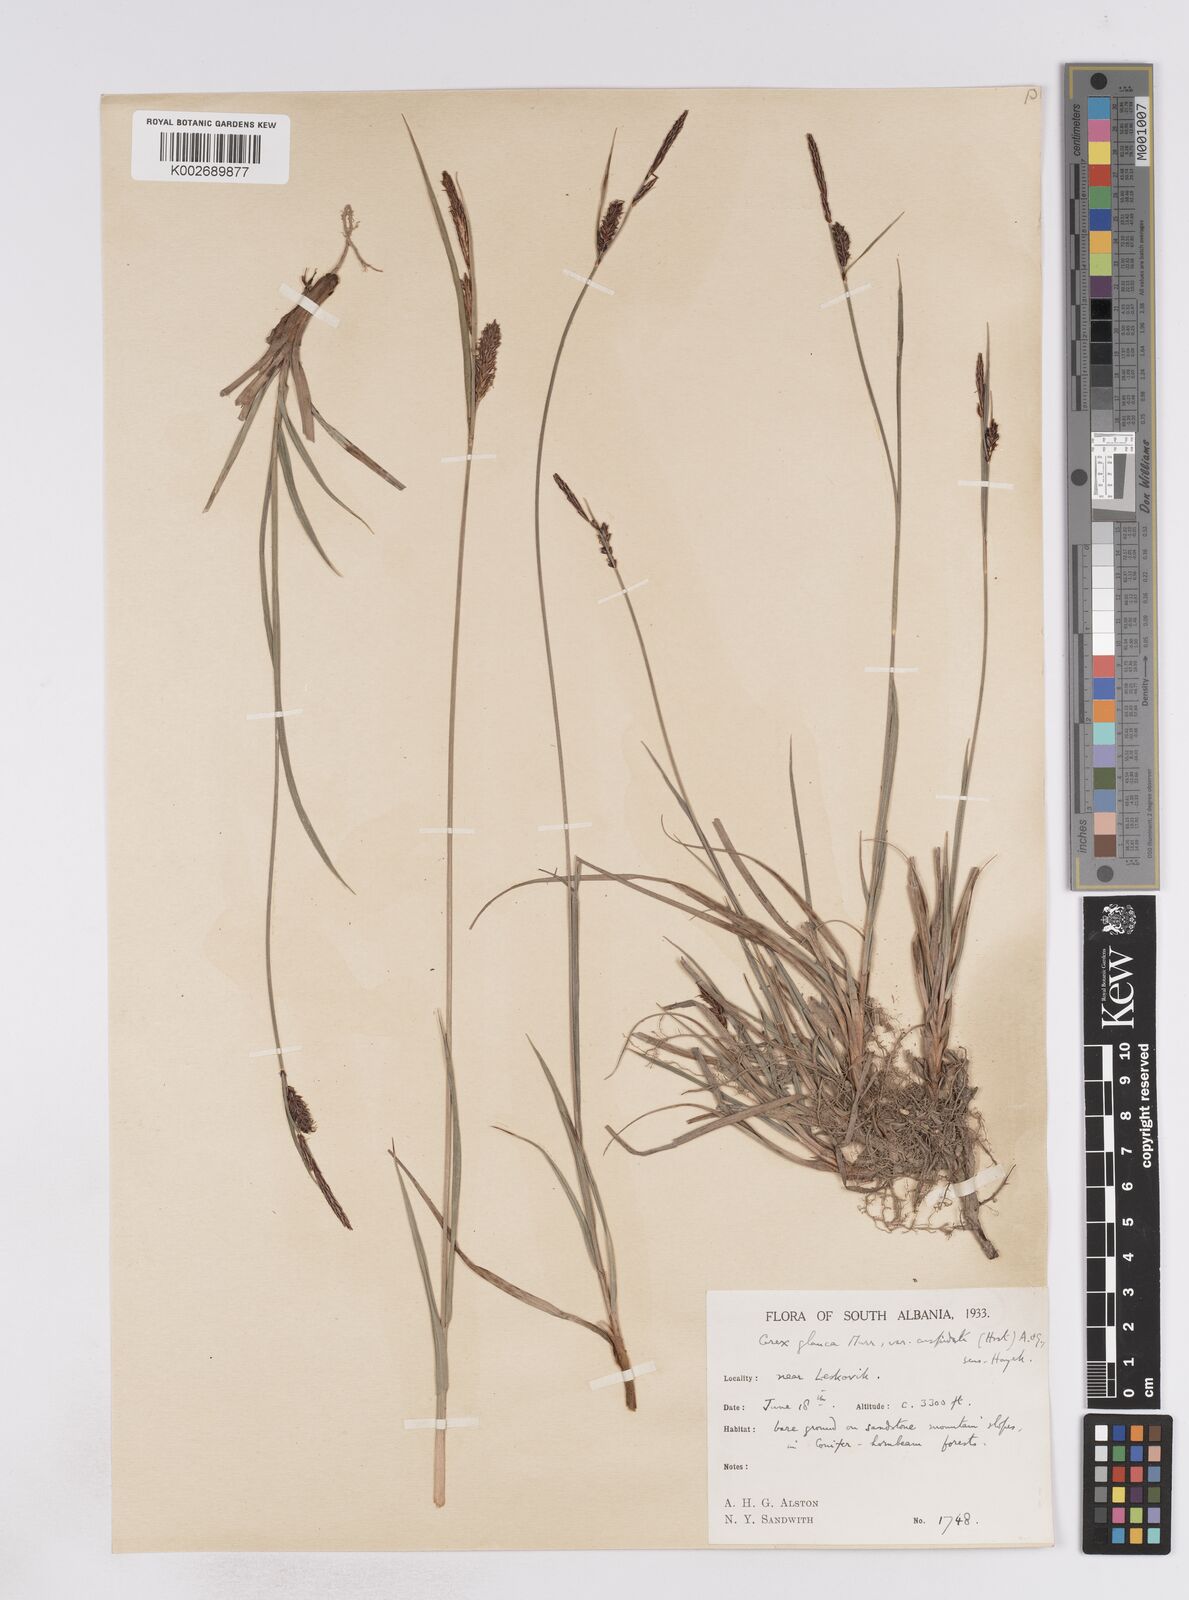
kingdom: Plantae
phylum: Tracheophyta
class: Liliopsida
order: Poales
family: Cyperaceae
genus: Carex
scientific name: Carex flacca
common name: Glaucous sedge
